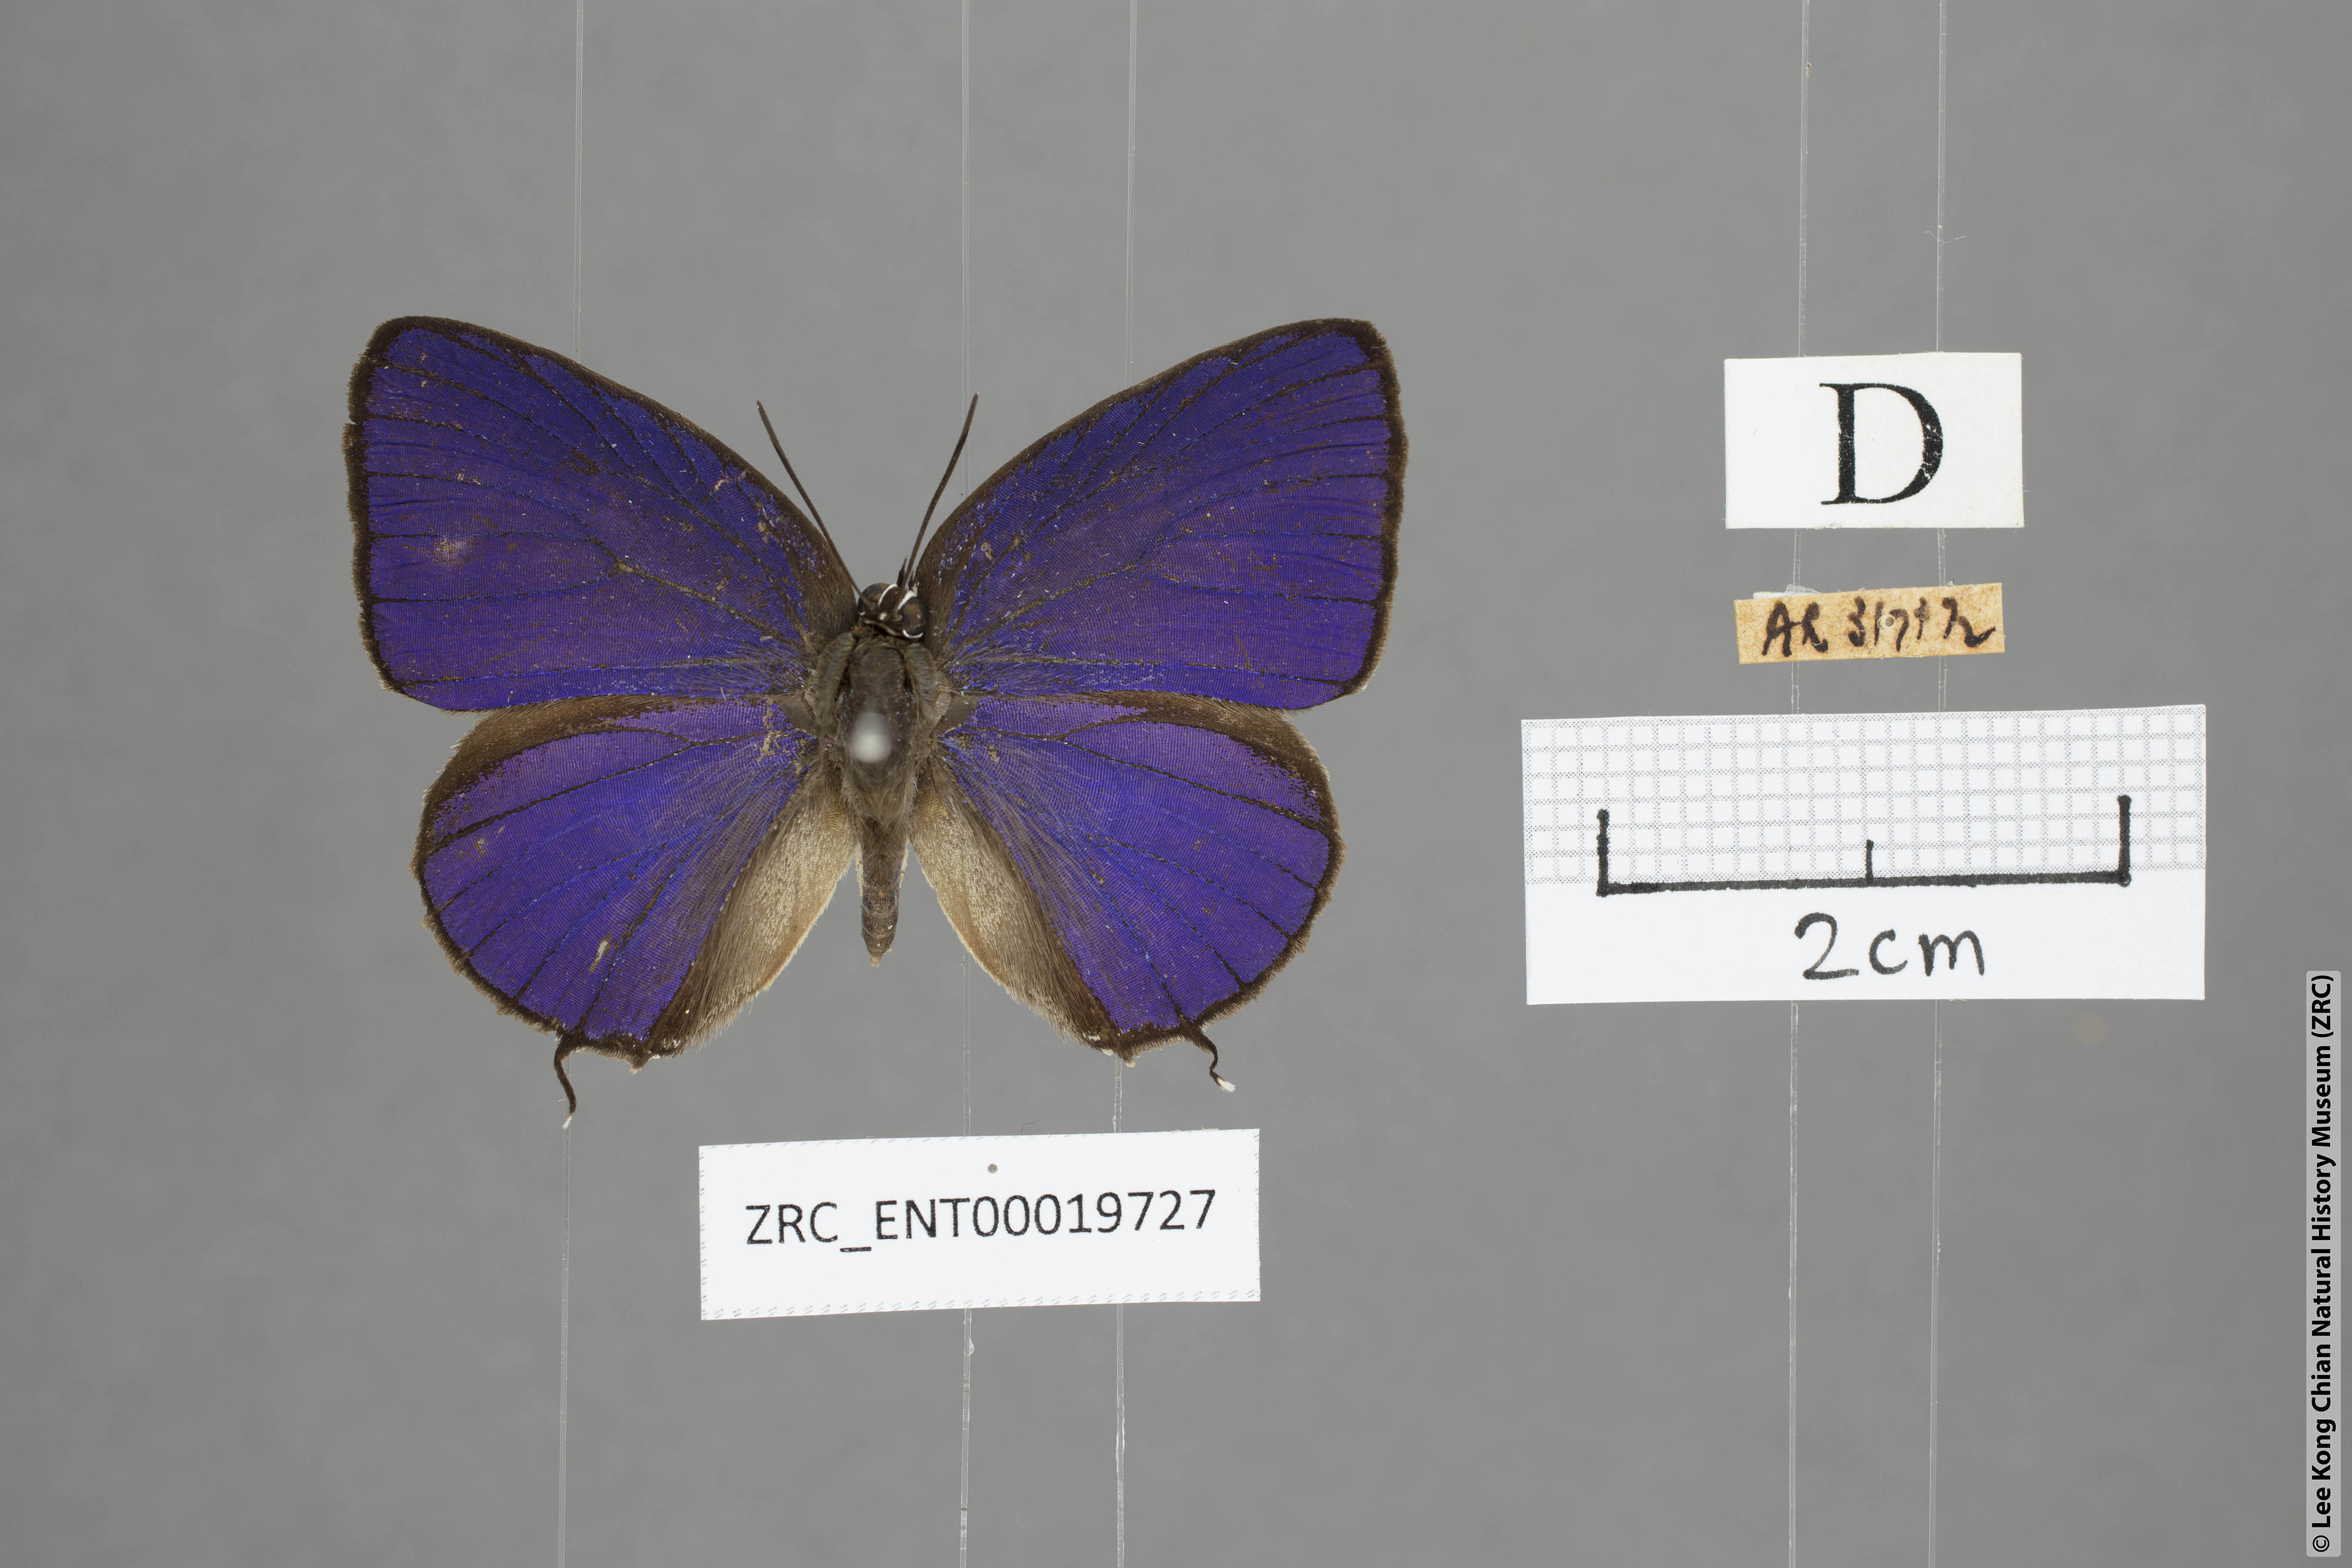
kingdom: Animalia
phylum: Arthropoda
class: Insecta
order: Lepidoptera
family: Lycaenidae
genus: Arhopala
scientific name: Arhopala myrzala
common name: Malayan oakblue
